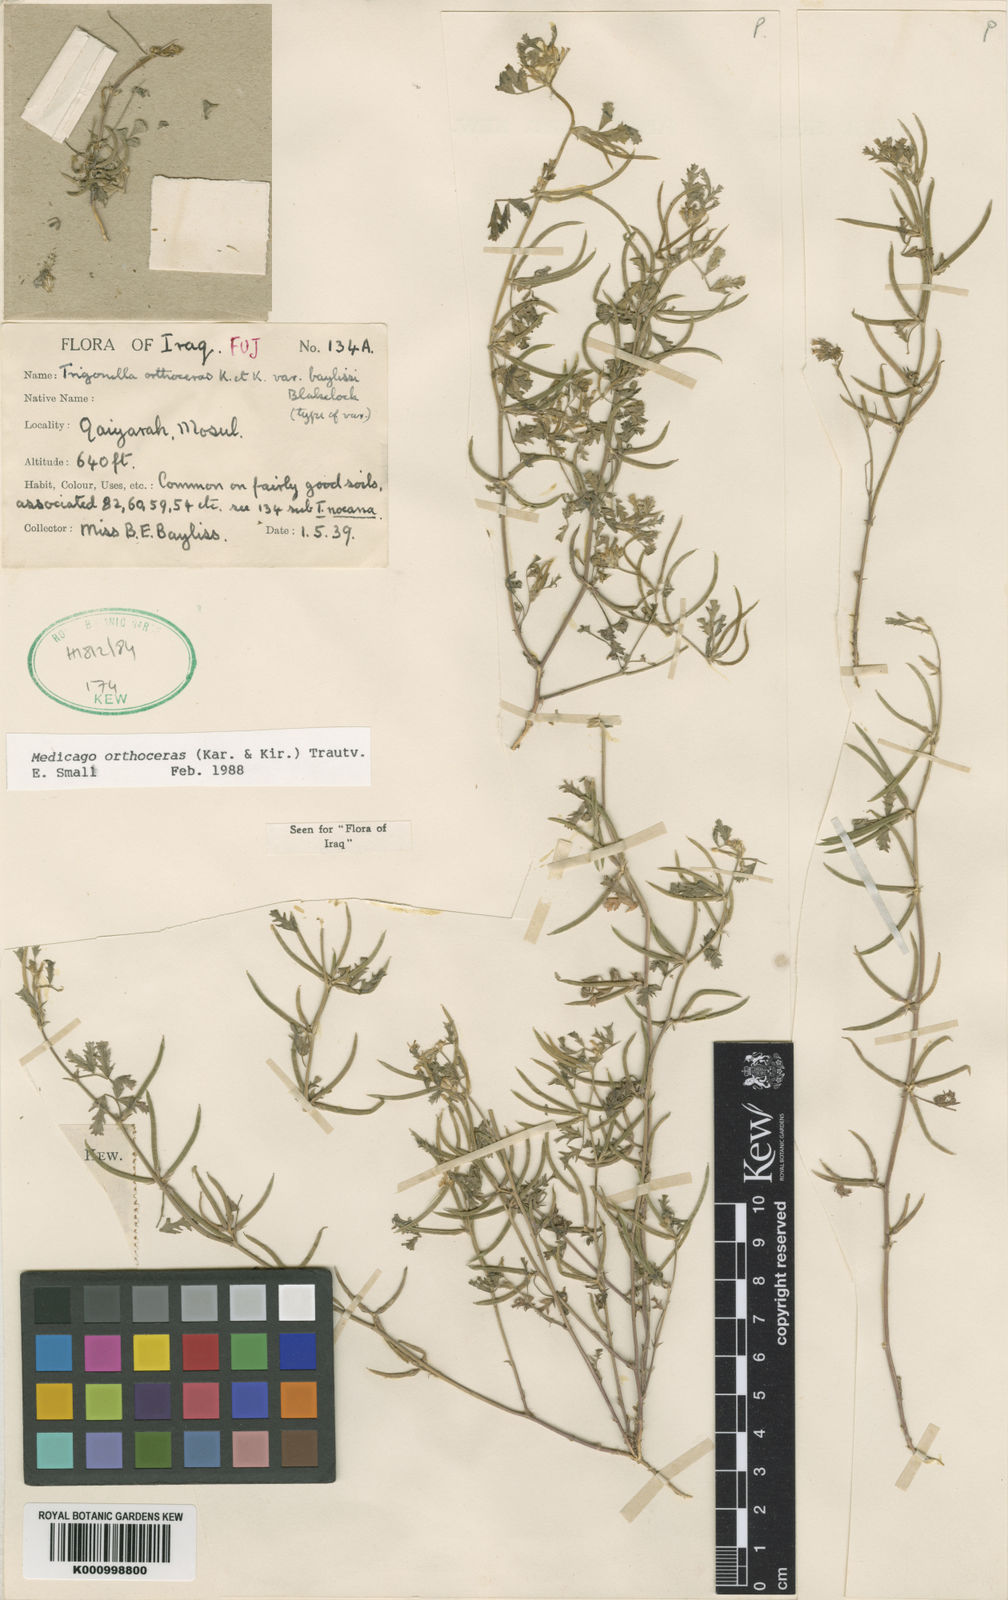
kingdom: Plantae
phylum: Tracheophyta
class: Magnoliopsida
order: Fabales
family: Fabaceae
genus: Medicago
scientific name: Medicago orthoceras
